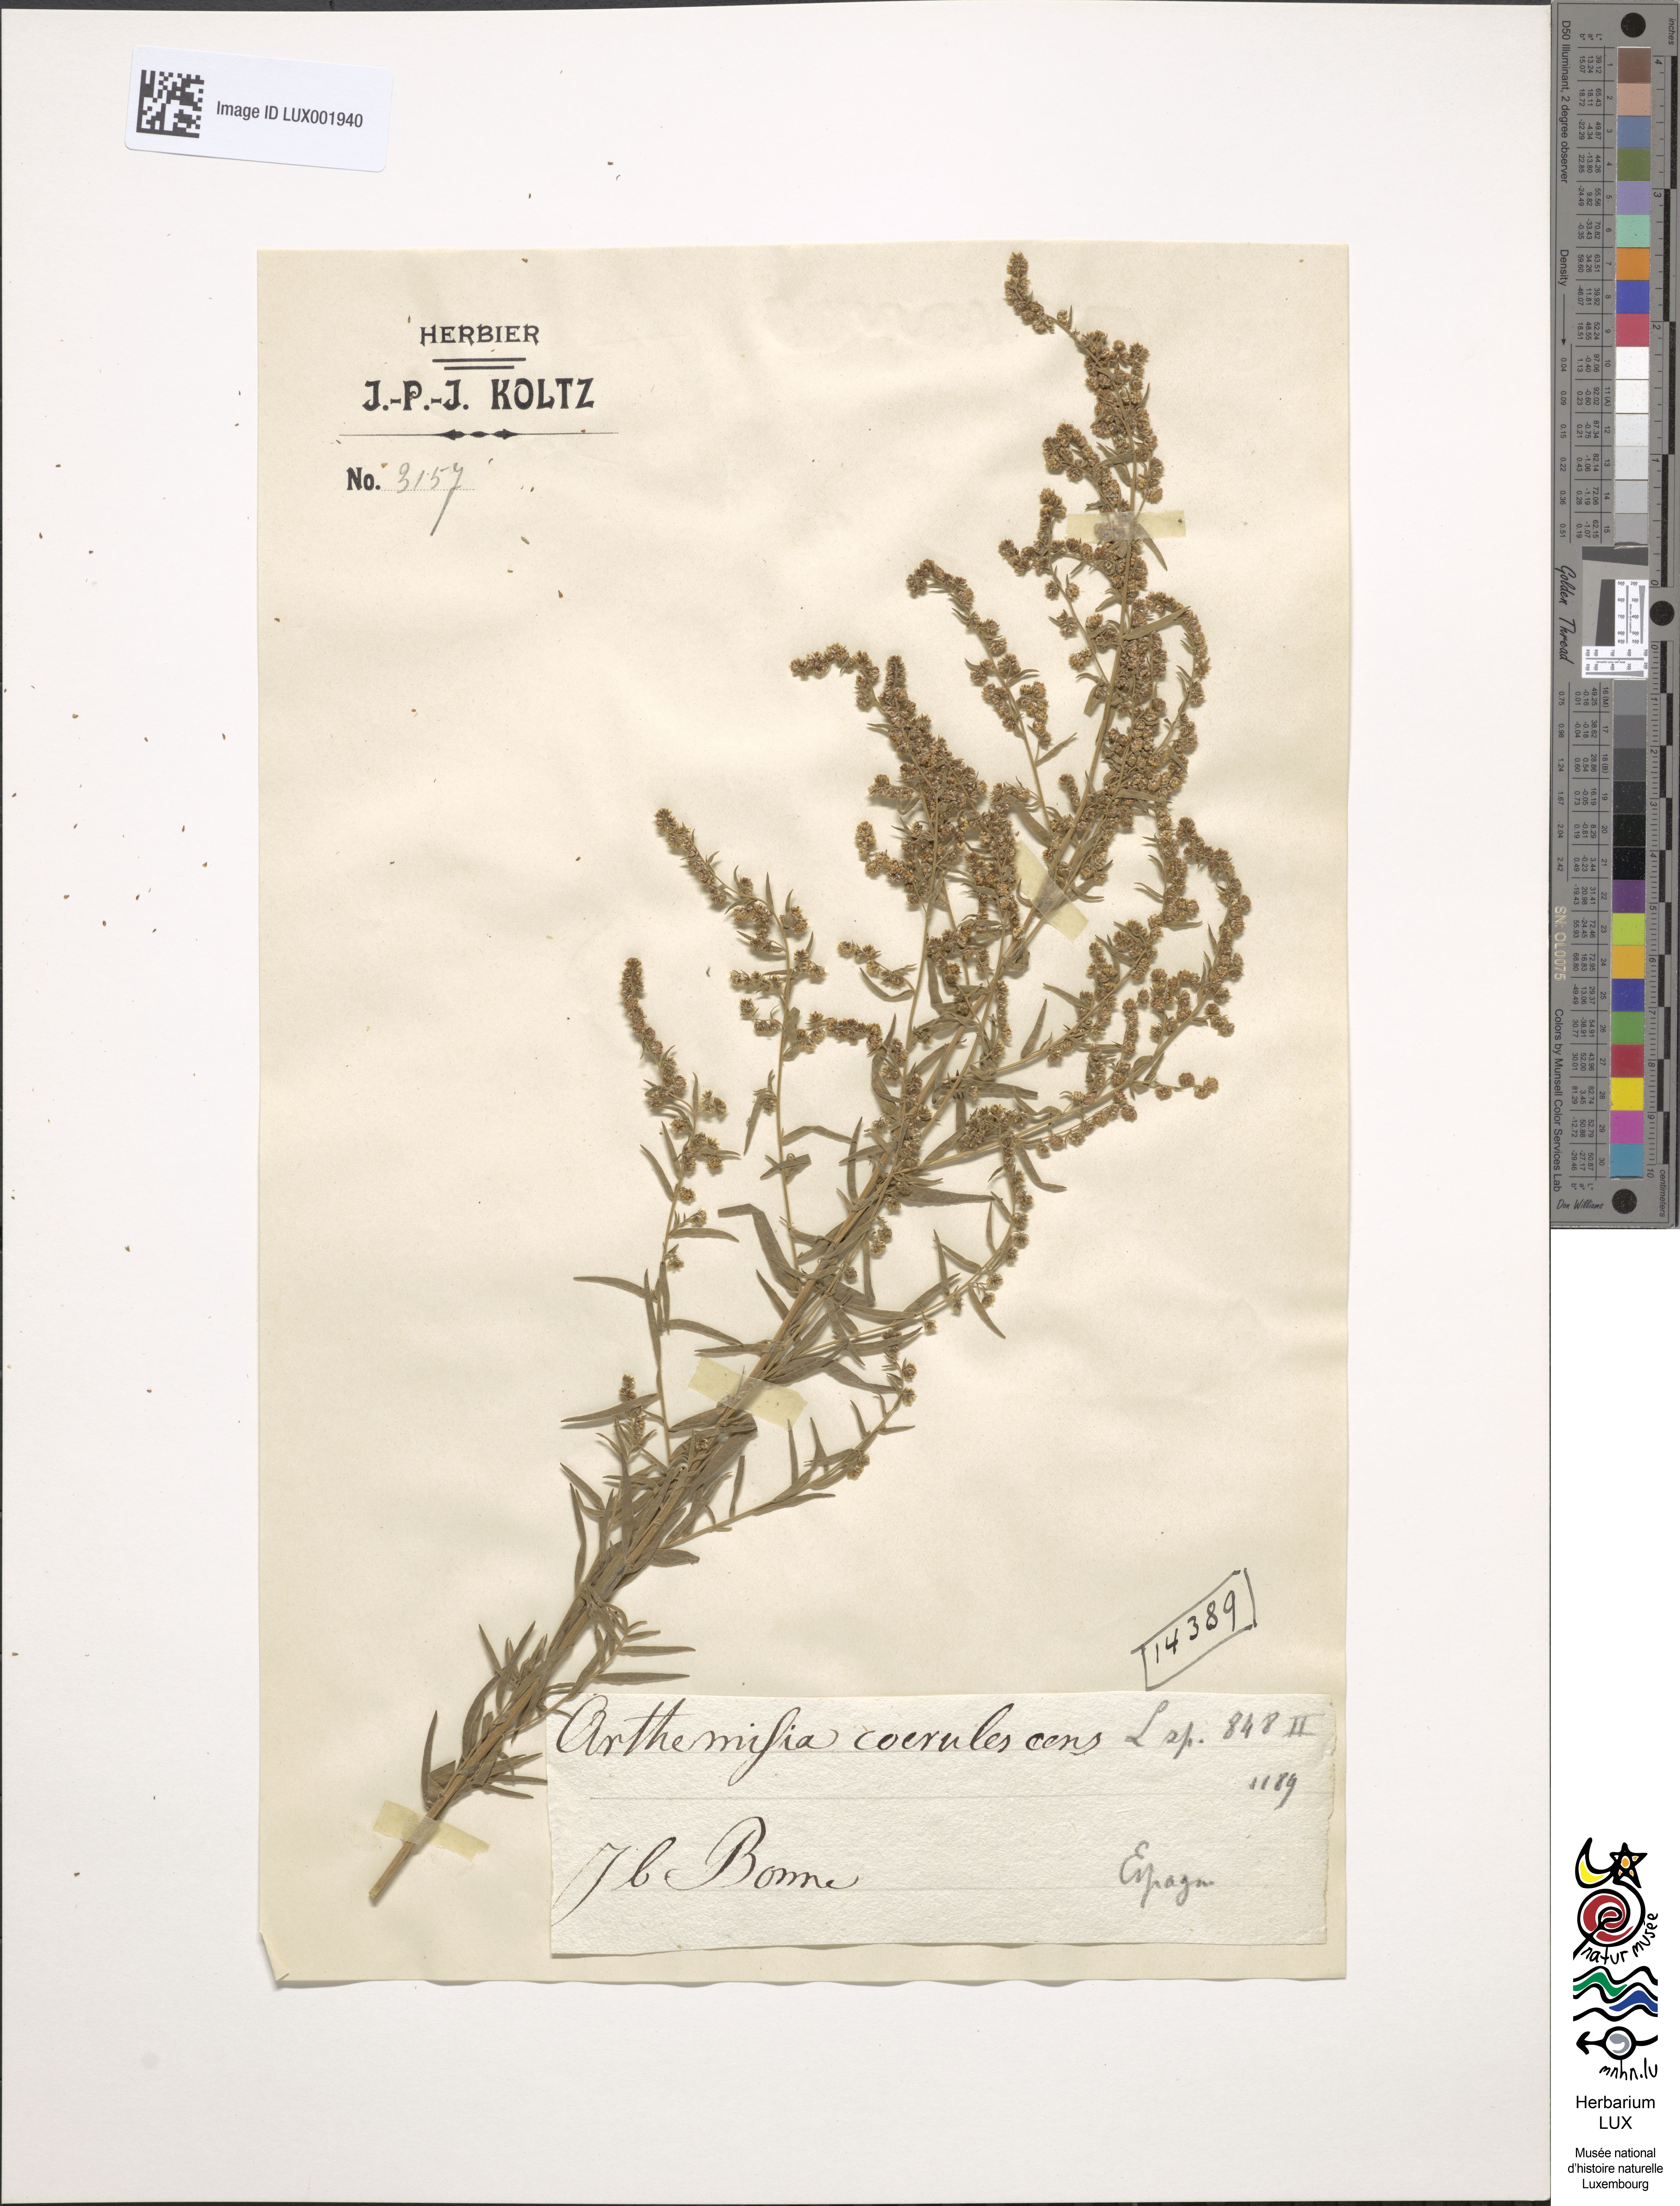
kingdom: Plantae
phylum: Tracheophyta
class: Magnoliopsida
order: Asterales
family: Asteraceae
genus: Artemisia
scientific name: Artemisia caerulescens
